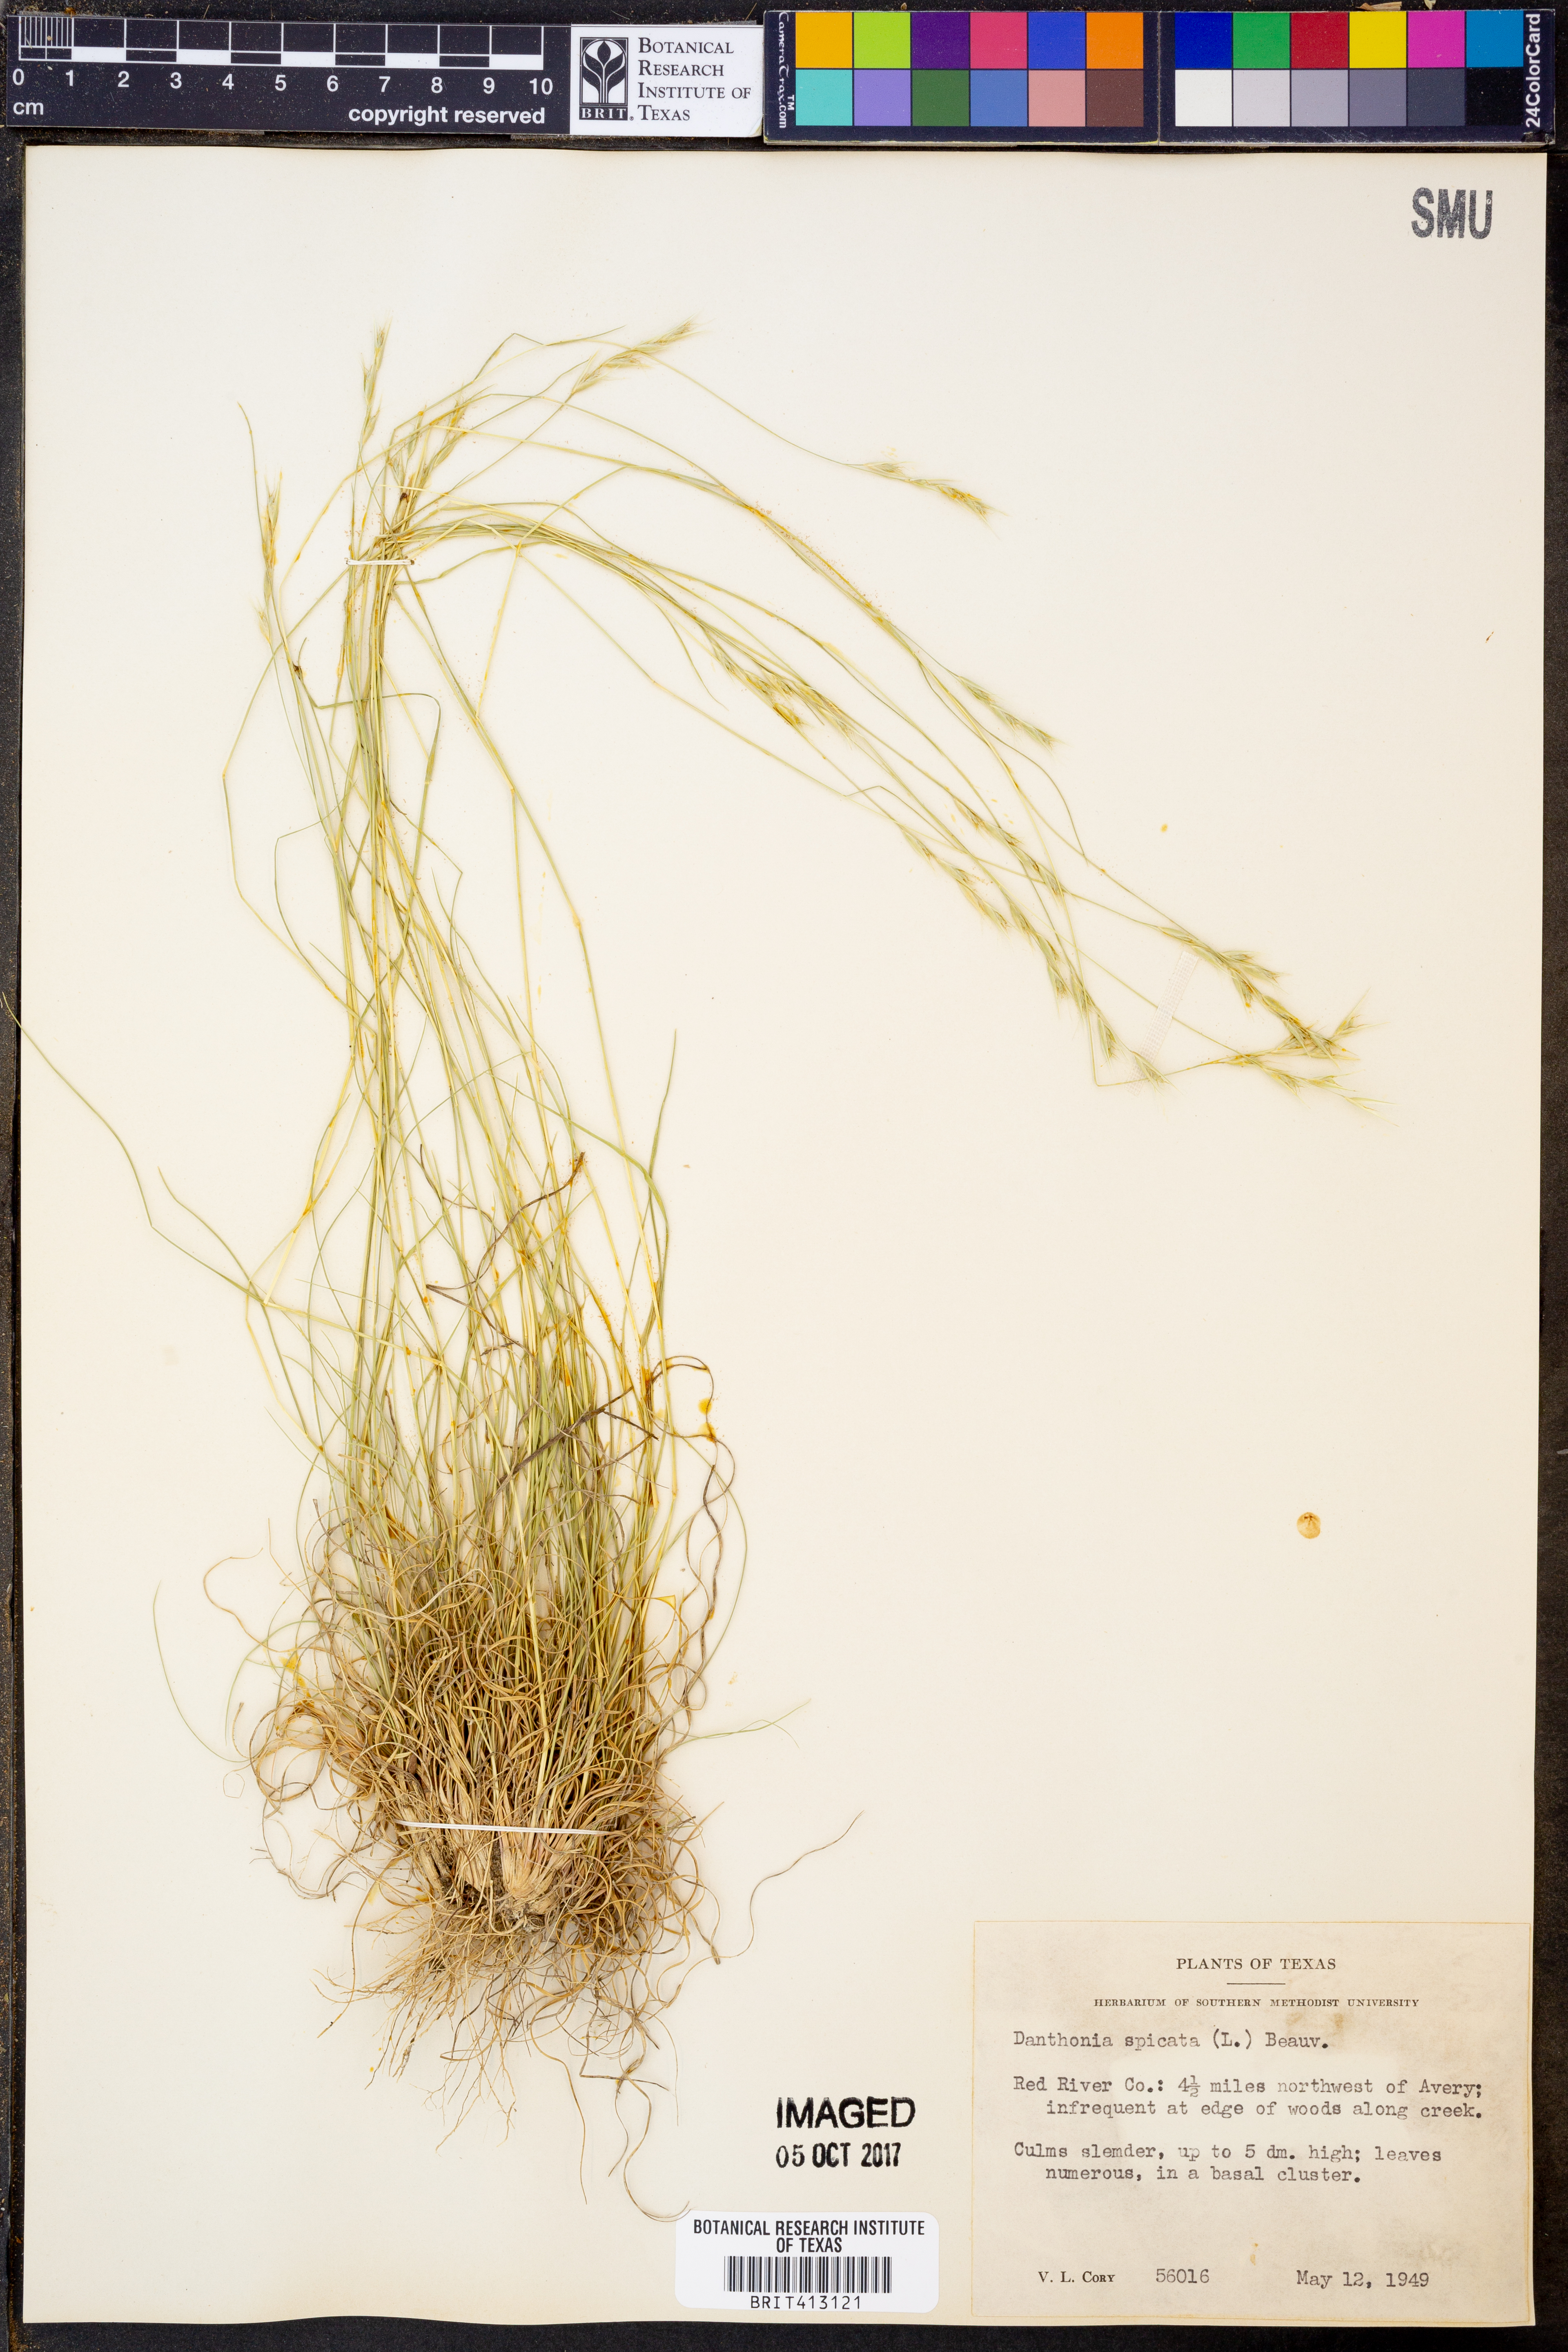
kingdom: Plantae
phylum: Tracheophyta
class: Liliopsida
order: Poales
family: Poaceae
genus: Danthonia
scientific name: Danthonia spicata
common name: Common wild oatgrass
